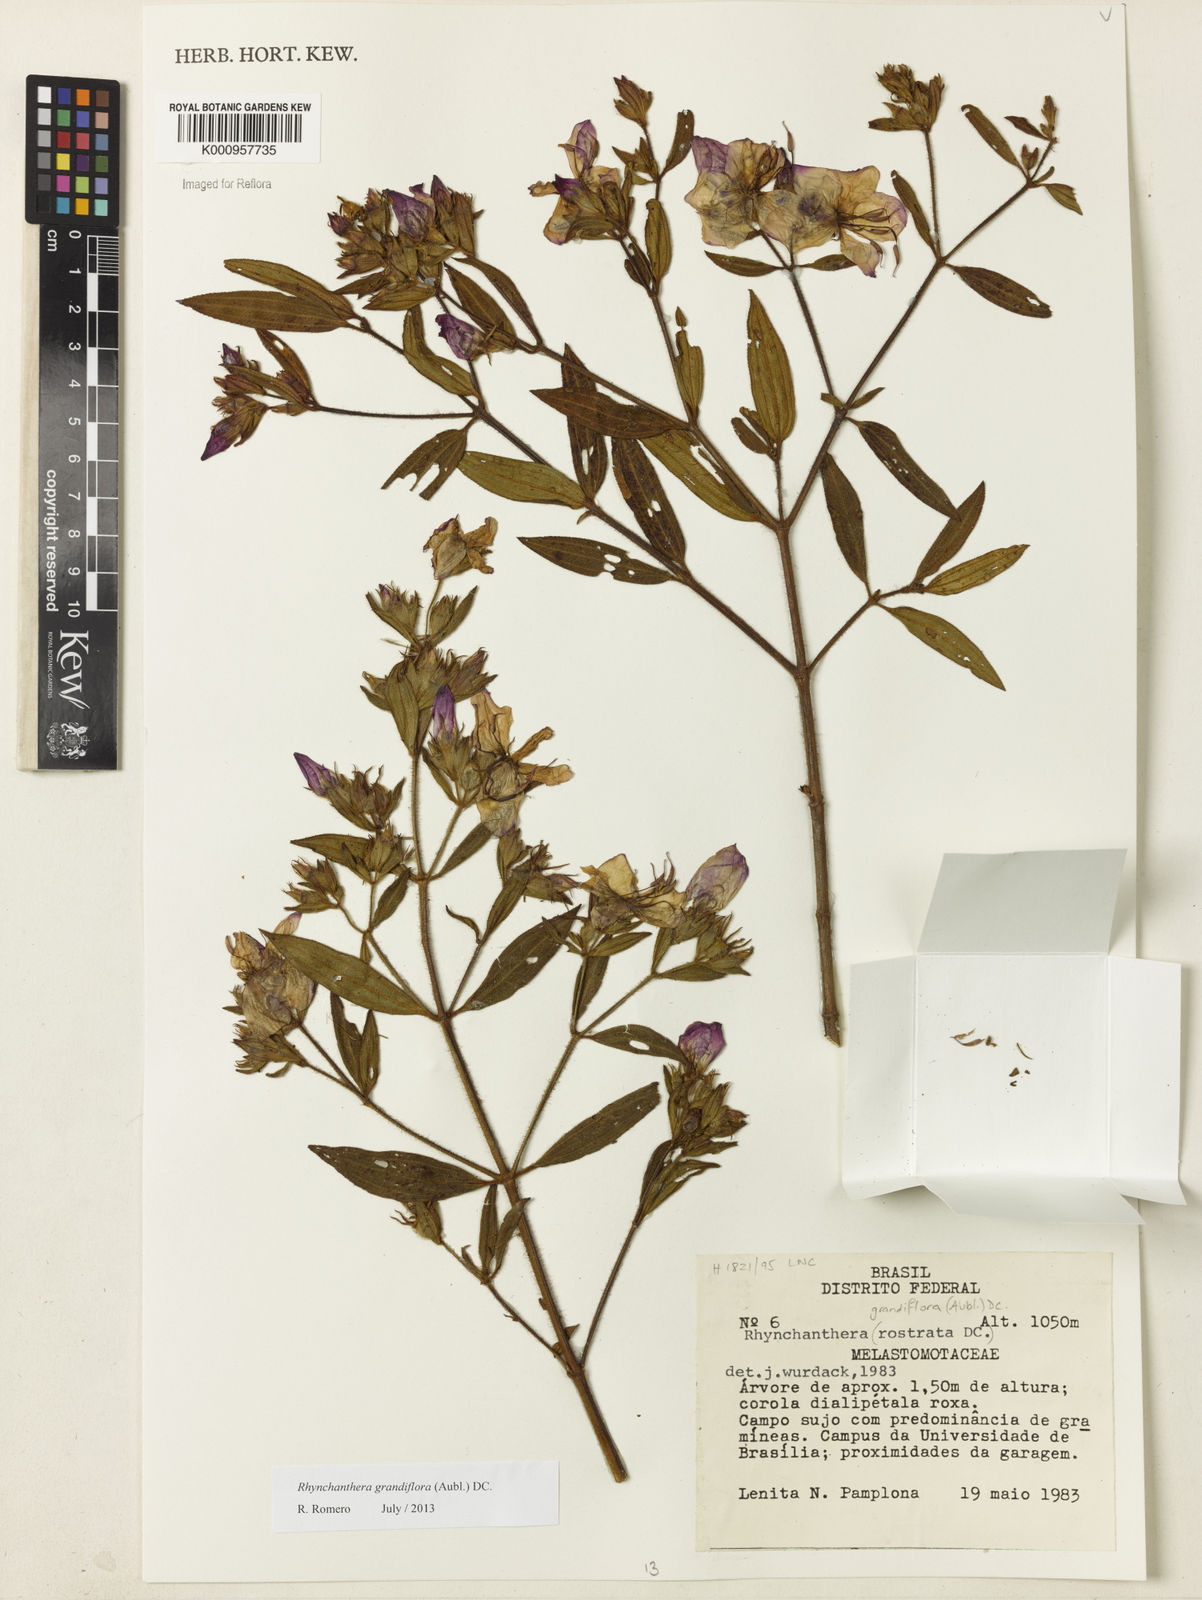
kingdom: Plantae
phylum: Tracheophyta
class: Magnoliopsida
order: Myrtales
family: Melastomataceae
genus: Rhynchanthera
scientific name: Rhynchanthera grandiflora
